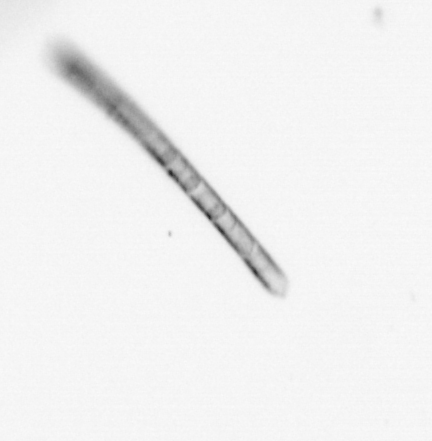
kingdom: Chromista
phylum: Ochrophyta
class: Bacillariophyceae
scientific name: Bacillariophyceae
